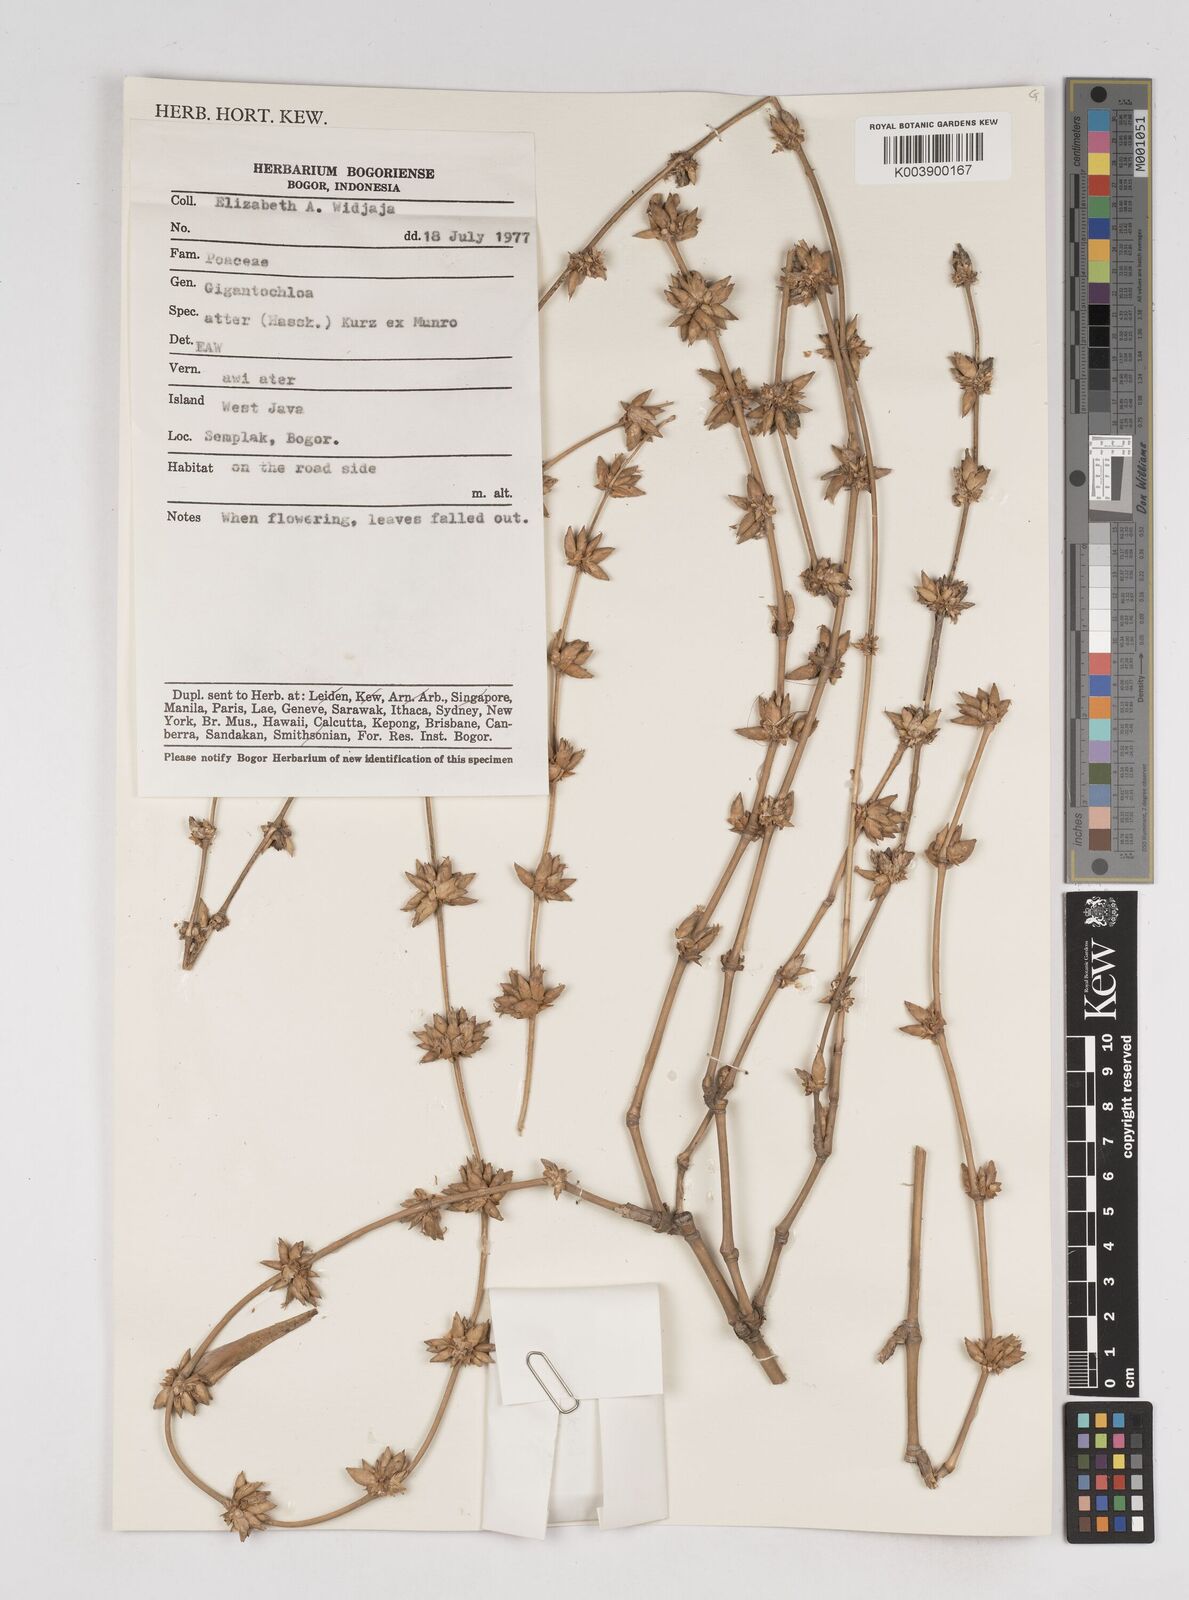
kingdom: Plantae
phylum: Tracheophyta
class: Liliopsida
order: Poales
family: Poaceae
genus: Gigantochloa
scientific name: Gigantochloa atter
